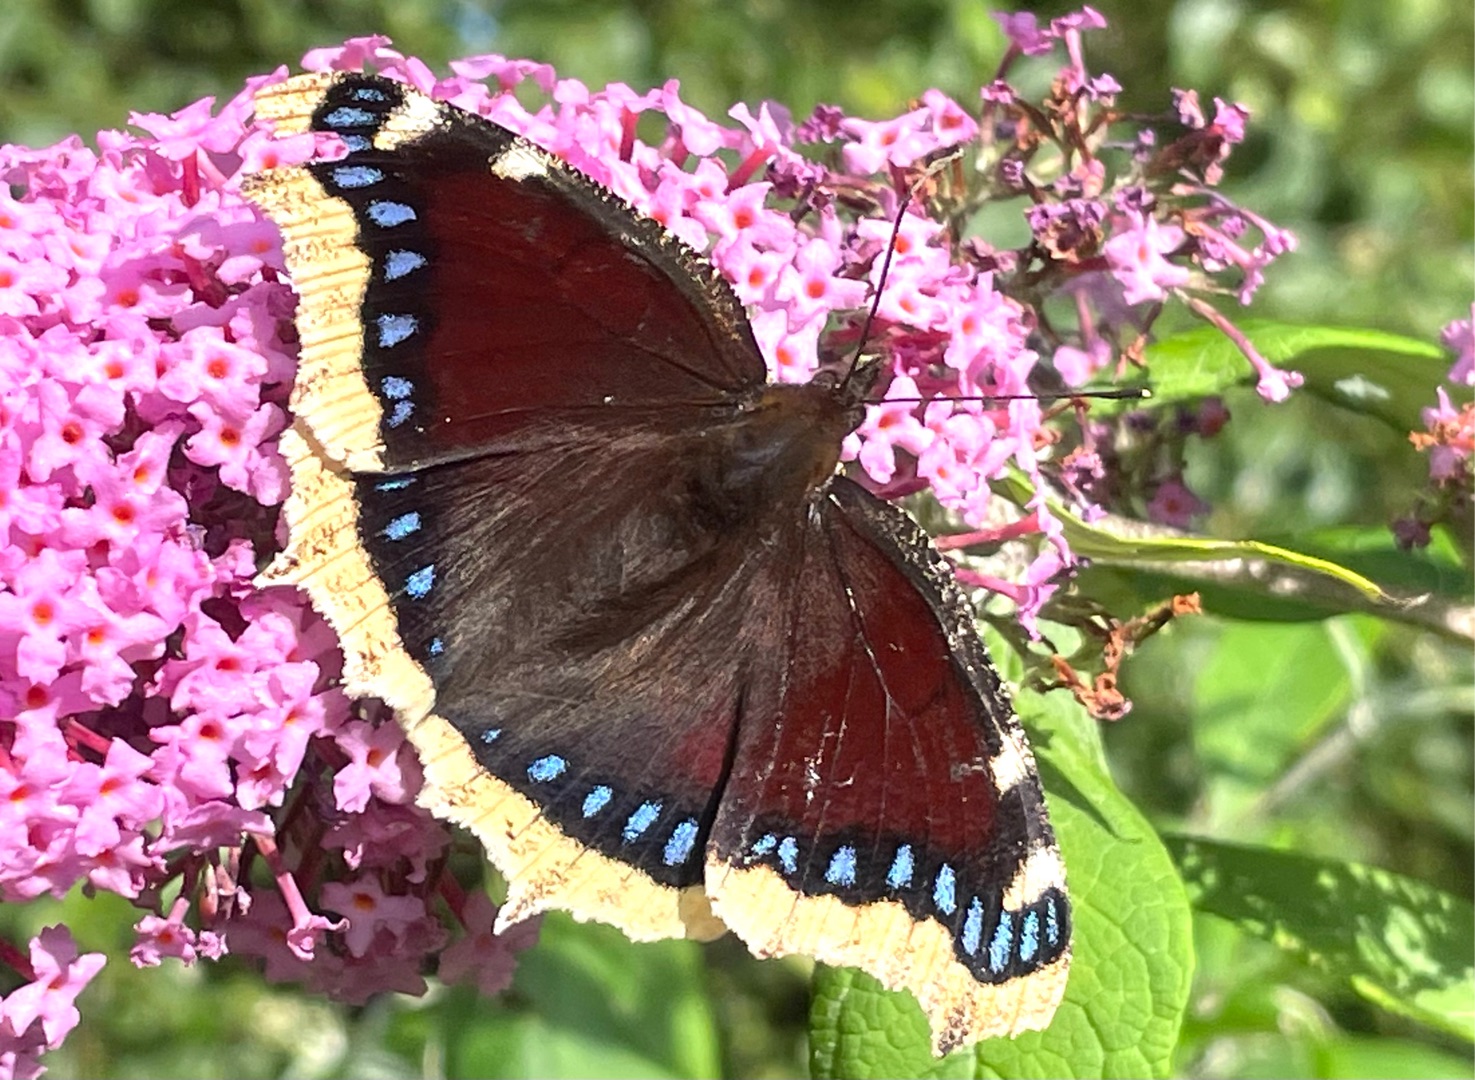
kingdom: Animalia
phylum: Arthropoda
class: Insecta
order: Lepidoptera
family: Nymphalidae
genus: Nymphalis
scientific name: Nymphalis antiopa
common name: Sørgekåbe
